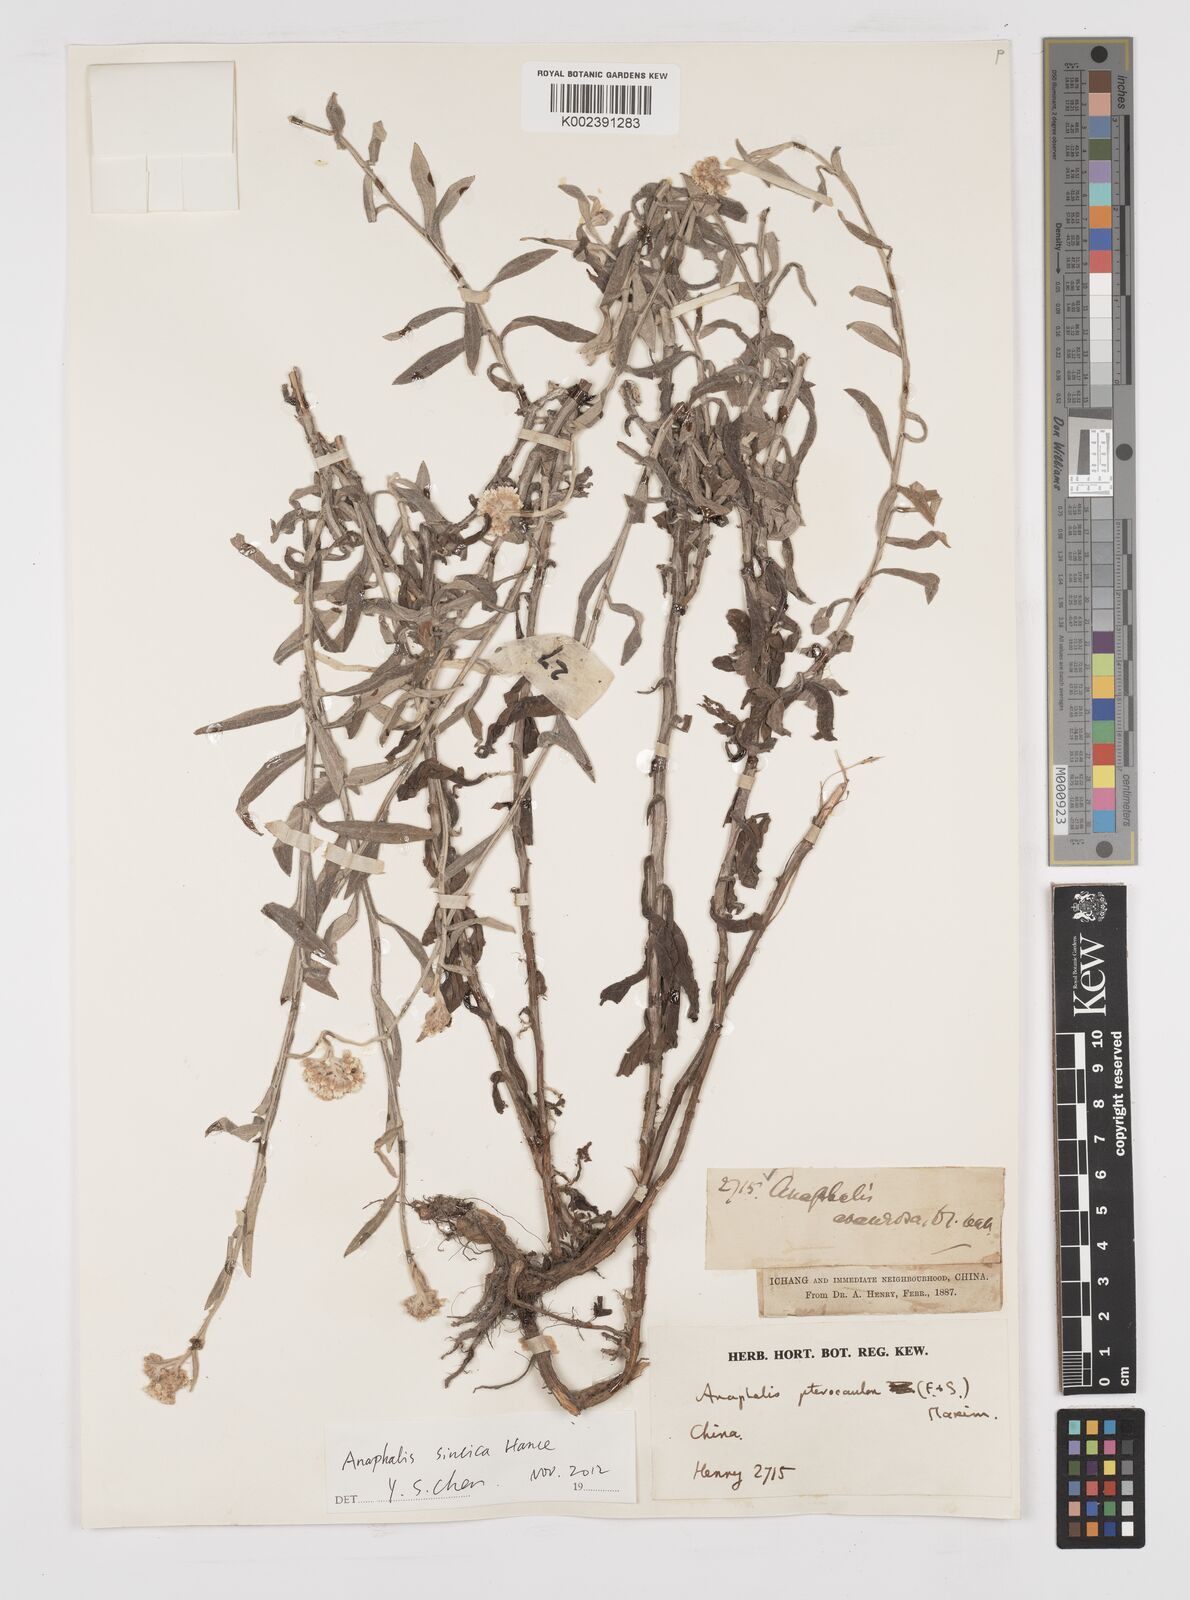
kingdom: Plantae
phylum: Tracheophyta
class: Magnoliopsida
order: Asterales
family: Asteraceae
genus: Anaphalis
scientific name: Anaphalis sinica
